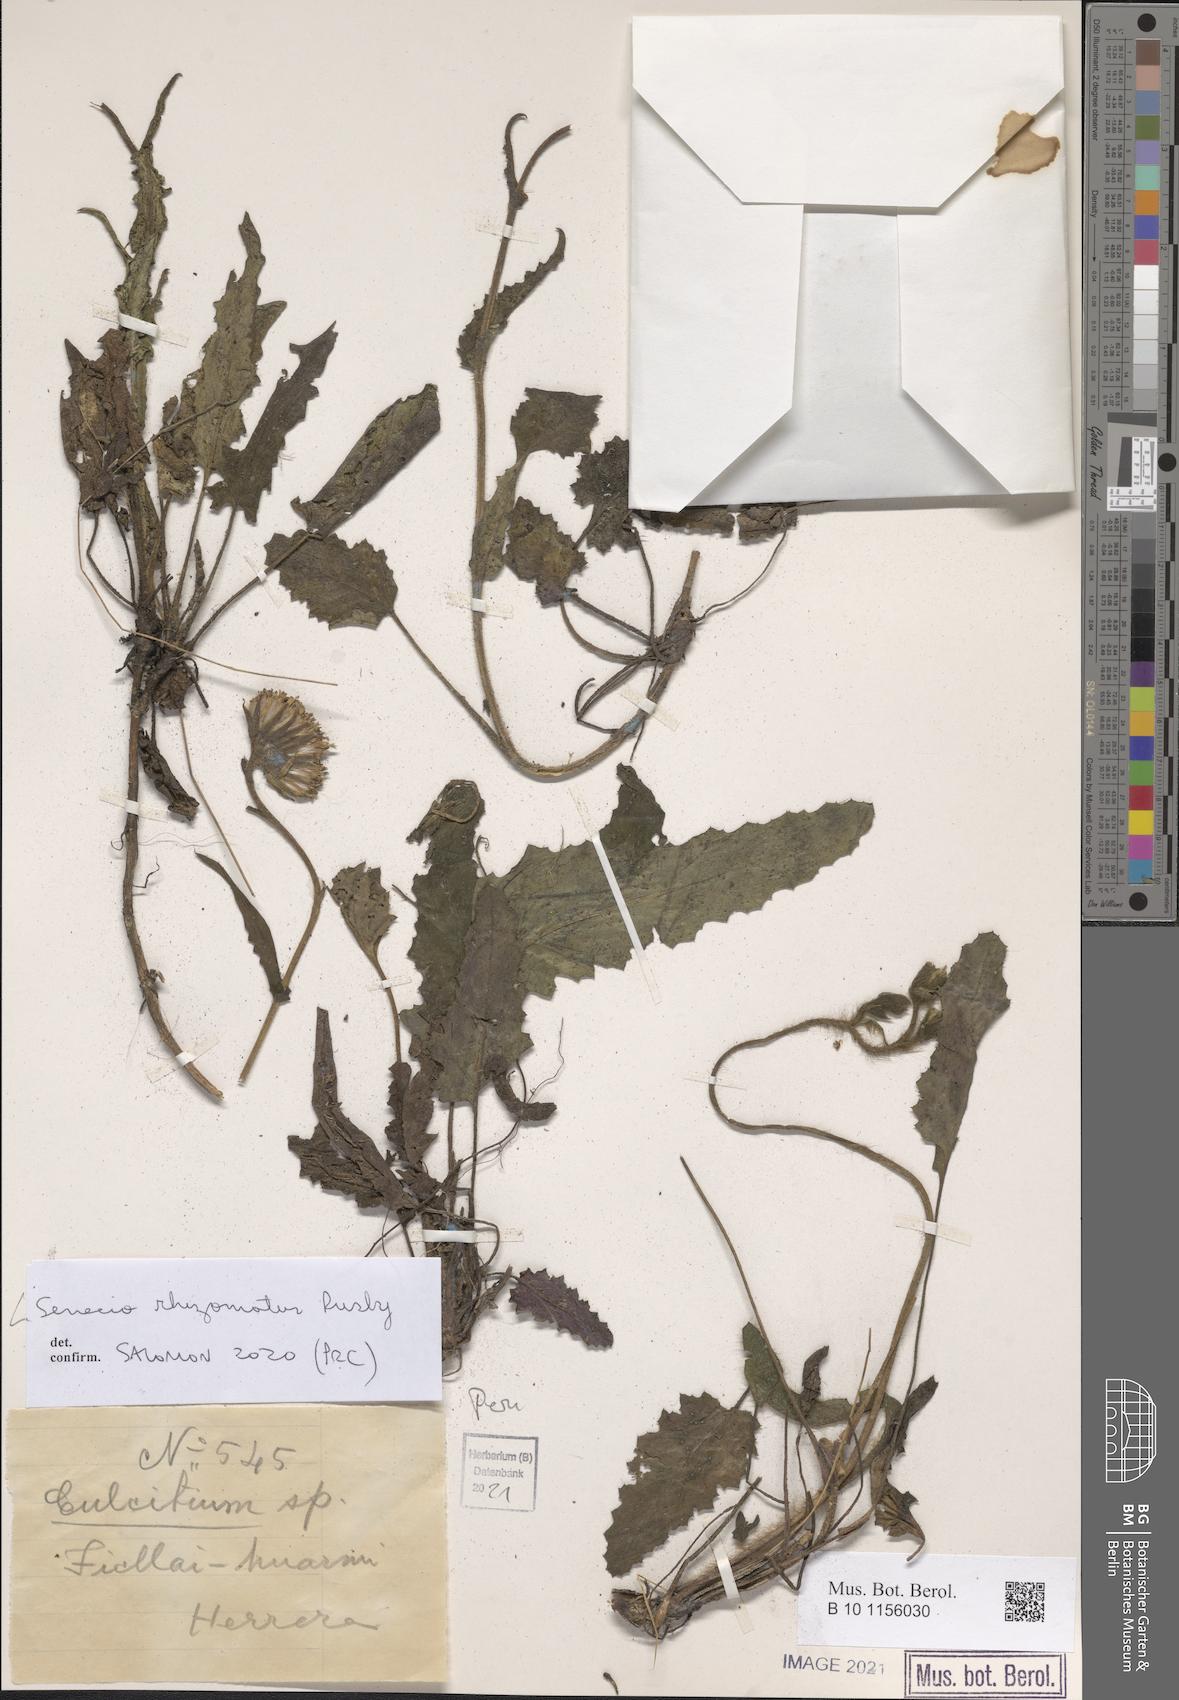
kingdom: Plantae
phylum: Tracheophyta
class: Magnoliopsida
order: Asterales
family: Asteraceae
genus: Senecio
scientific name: Senecio rhizomatus
